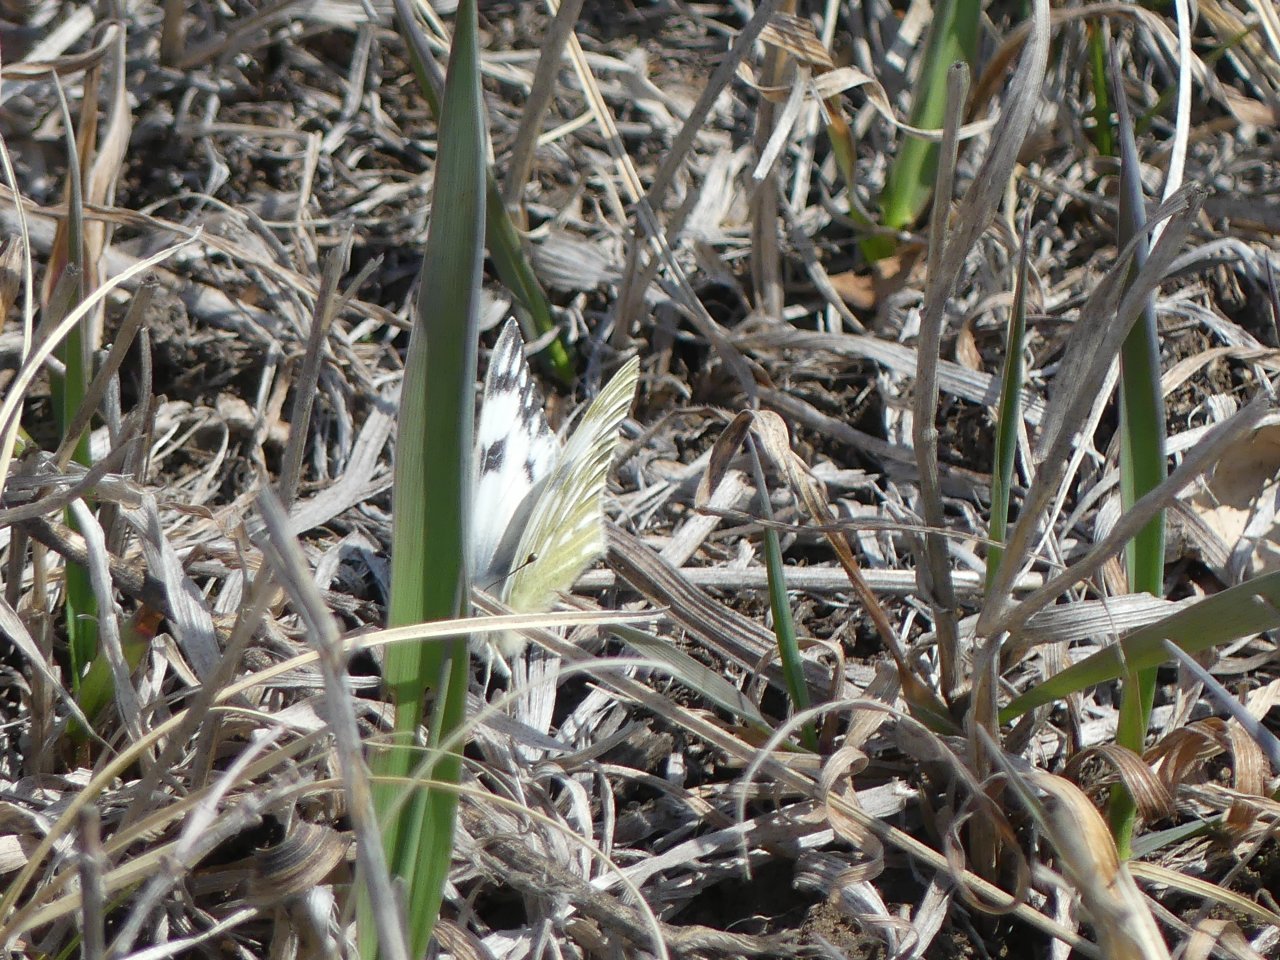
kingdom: Animalia
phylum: Arthropoda
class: Insecta
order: Lepidoptera
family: Pieridae
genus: Pontia
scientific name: Pontia occidentalis
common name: Western White
